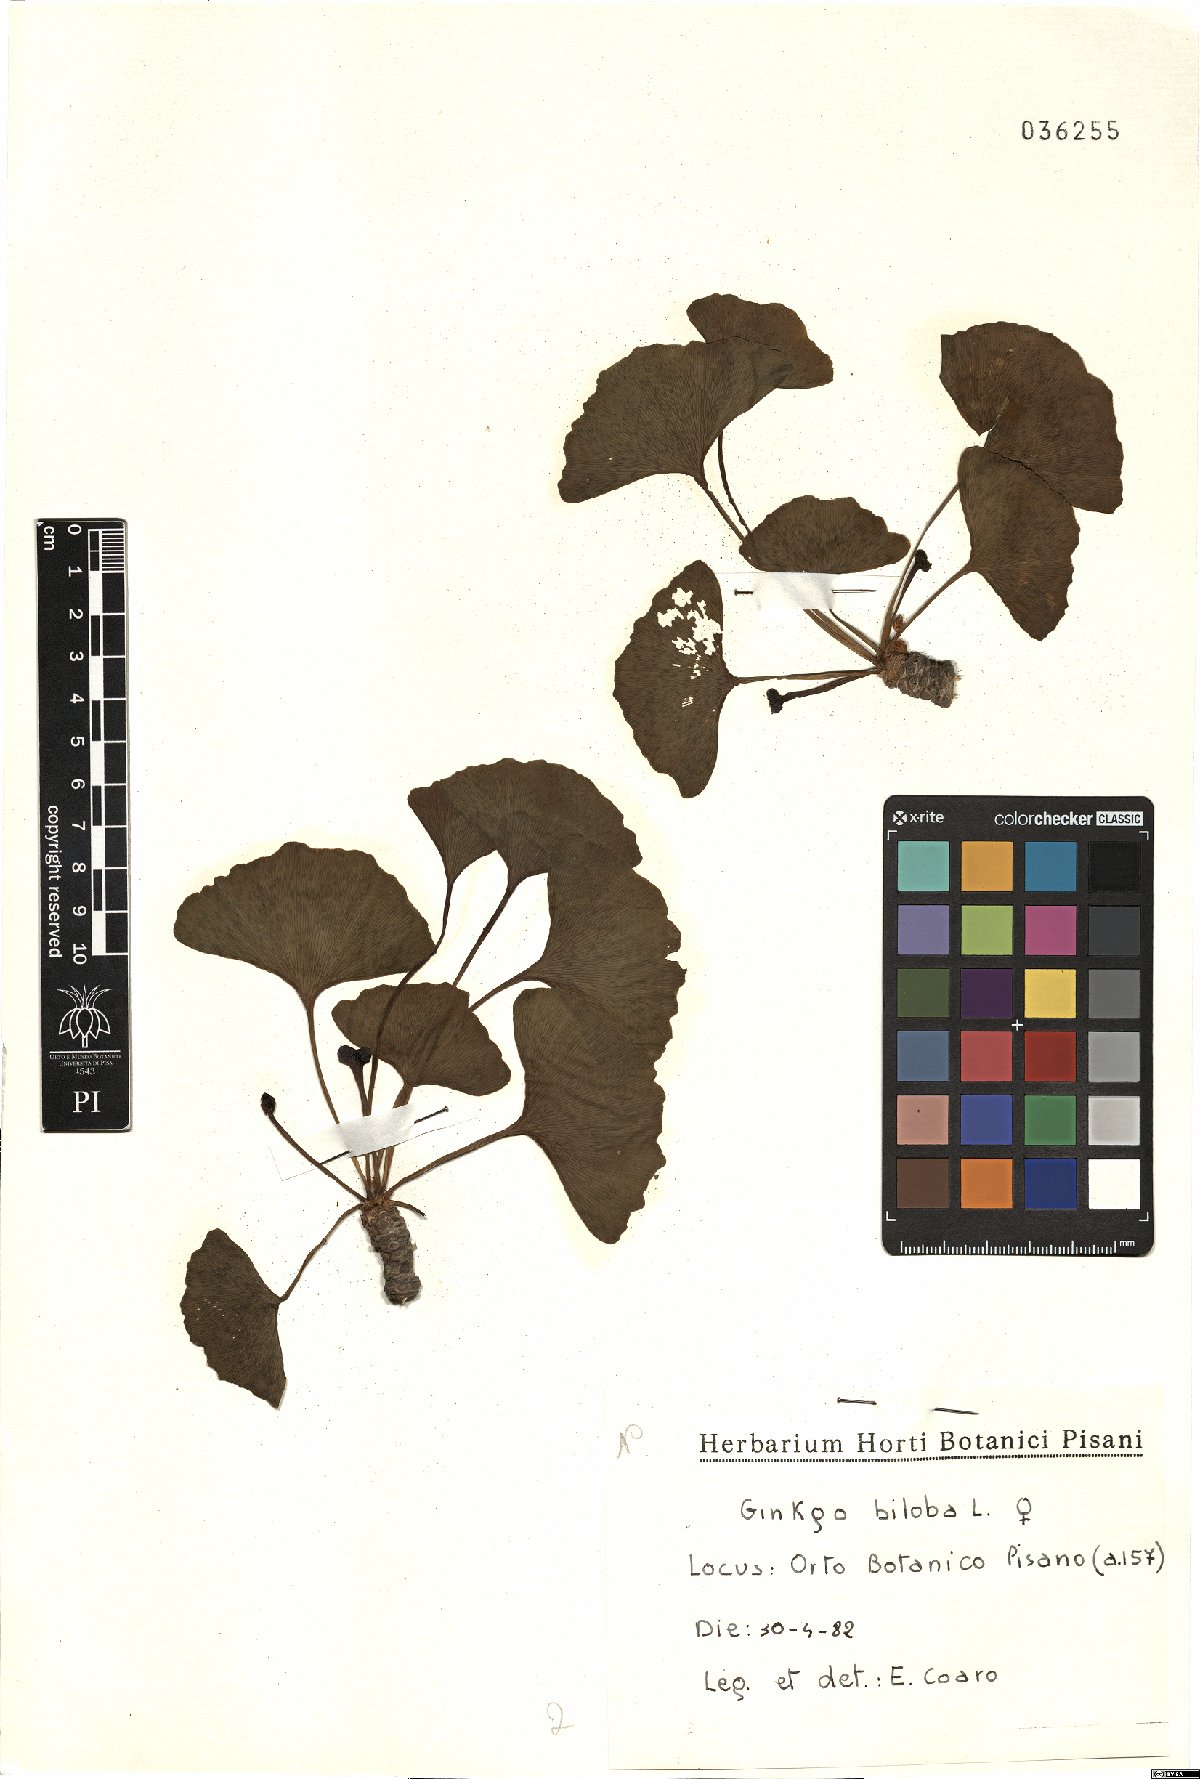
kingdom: Plantae
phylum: Tracheophyta
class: Ginkgoopsida
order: Ginkgoales
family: Ginkgoaceae
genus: Ginkgo
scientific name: Ginkgo biloba
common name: Ginkgo
